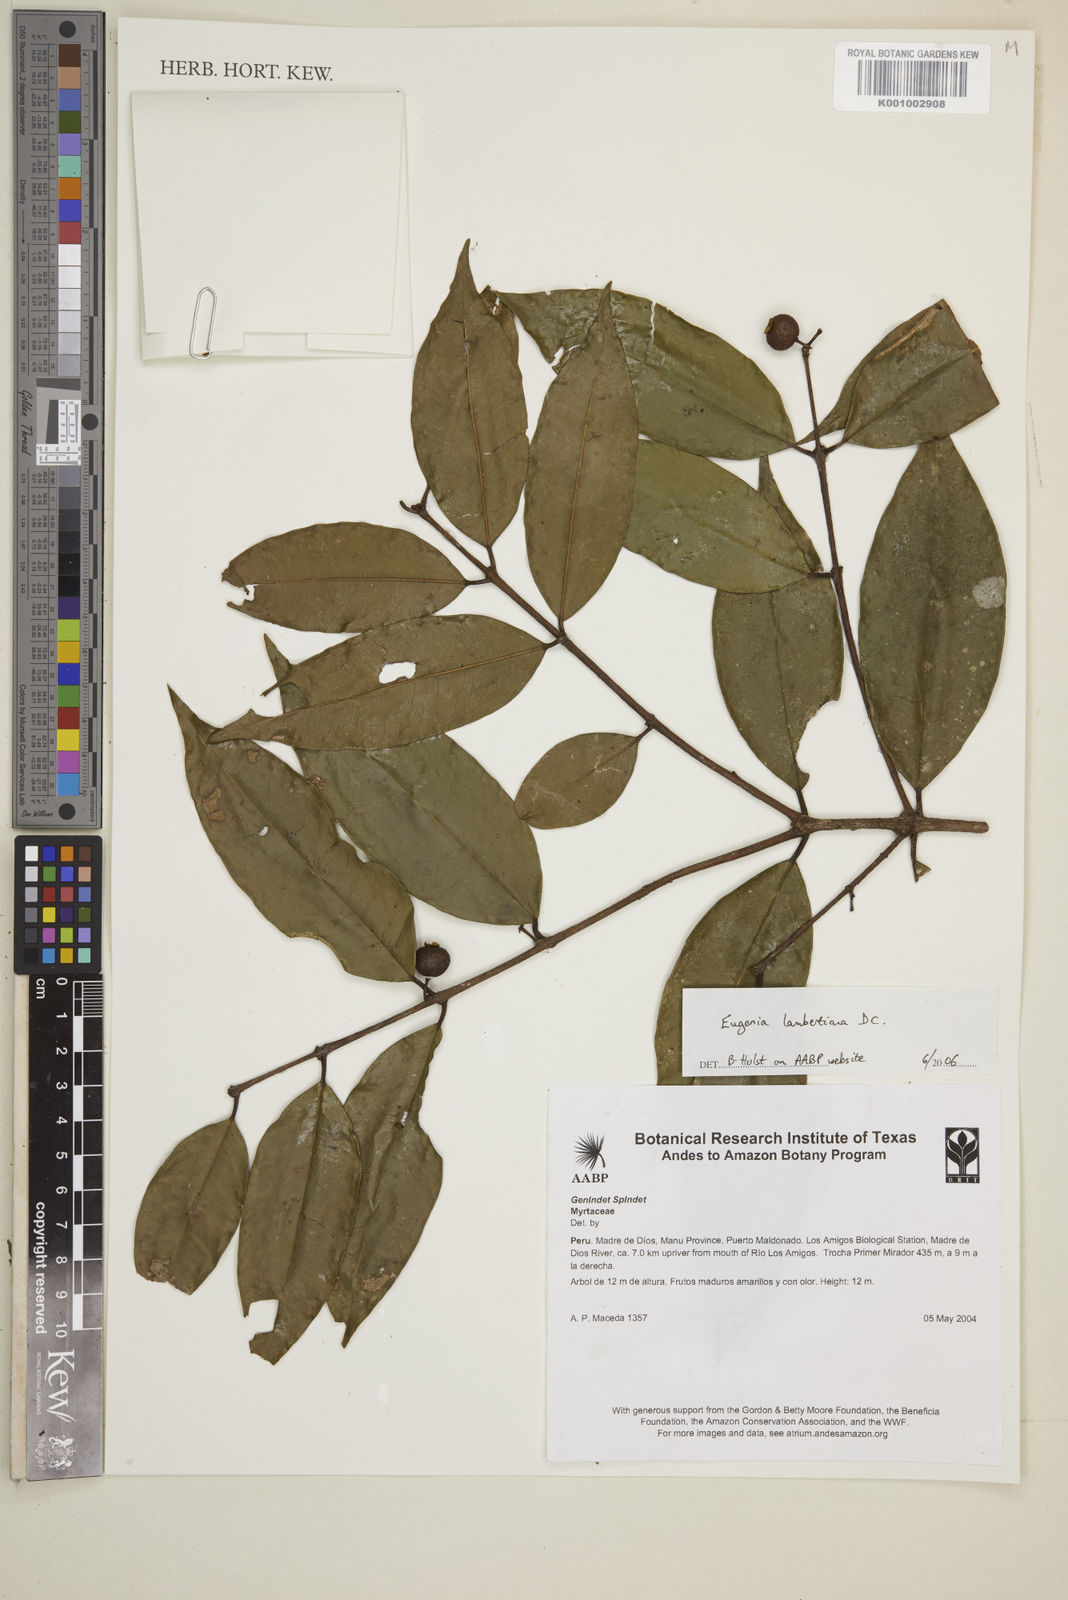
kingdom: Plantae
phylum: Tracheophyta
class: Magnoliopsida
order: Myrtales
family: Myrtaceae
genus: Eugenia
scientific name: Eugenia lambertiana
